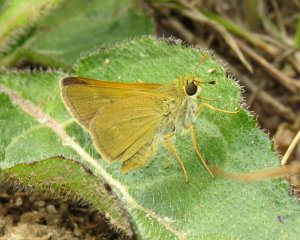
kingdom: Animalia
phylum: Arthropoda
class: Insecta
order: Lepidoptera
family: Hesperiidae
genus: Polites
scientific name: Polites
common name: Crossline Skipper
